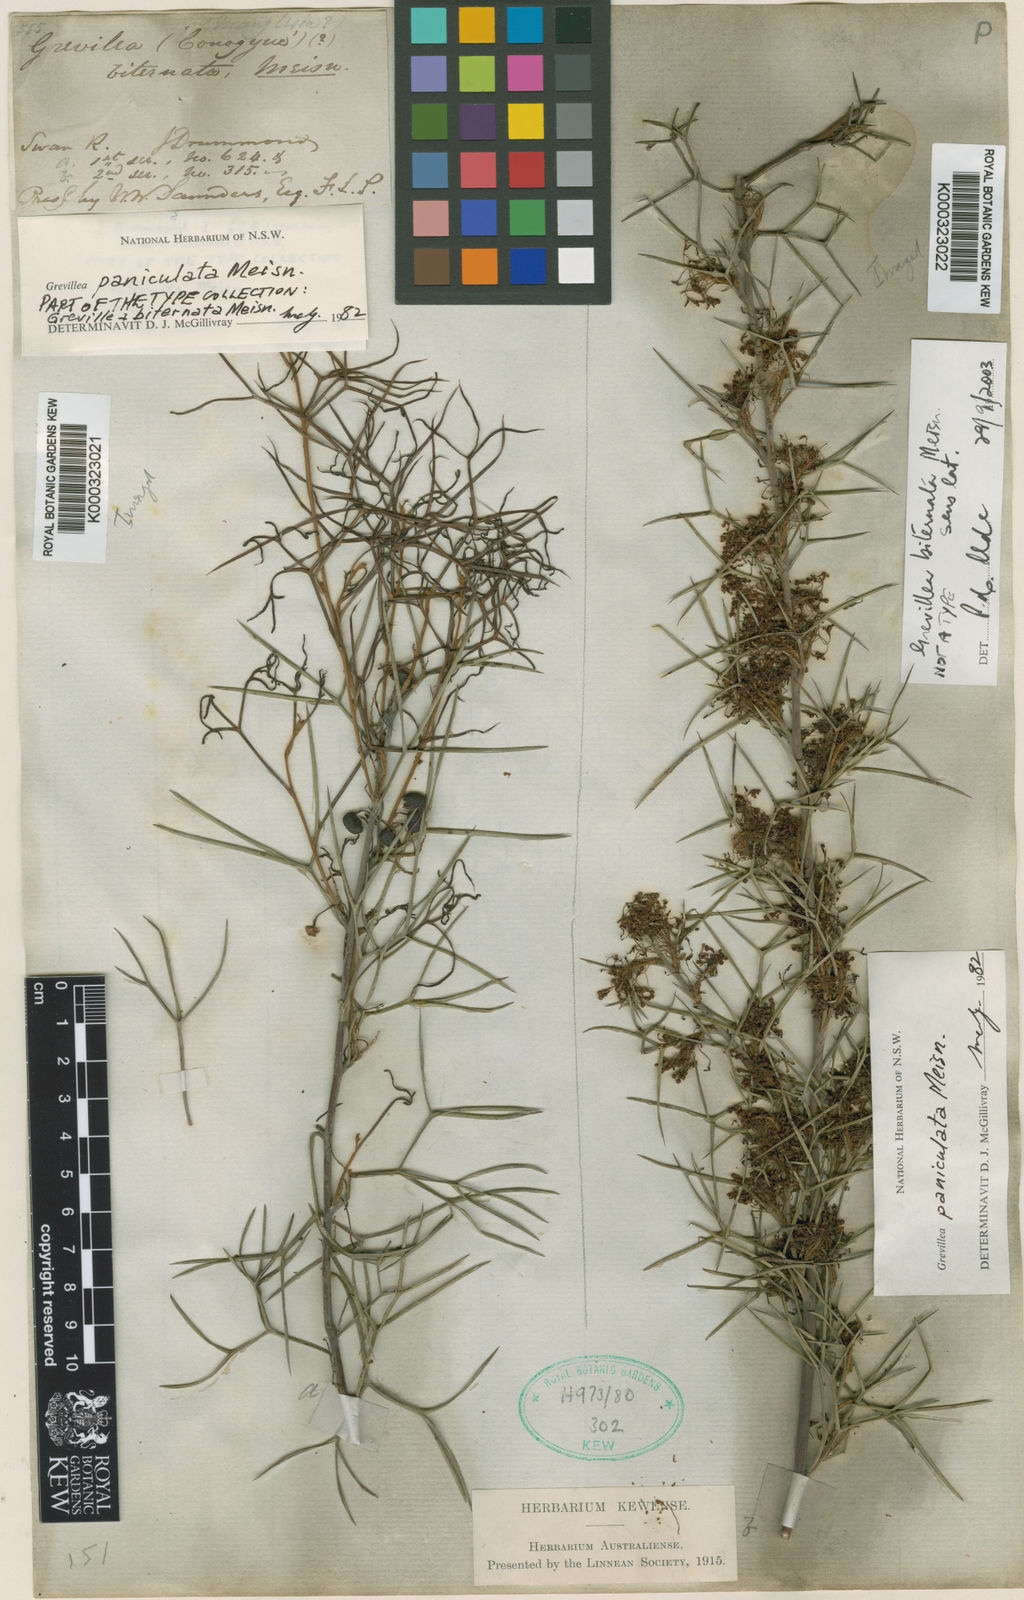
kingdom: Plantae
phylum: Tracheophyta
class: Magnoliopsida
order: Proteales
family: Proteaceae
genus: Grevillea
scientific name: Grevillea biternata
